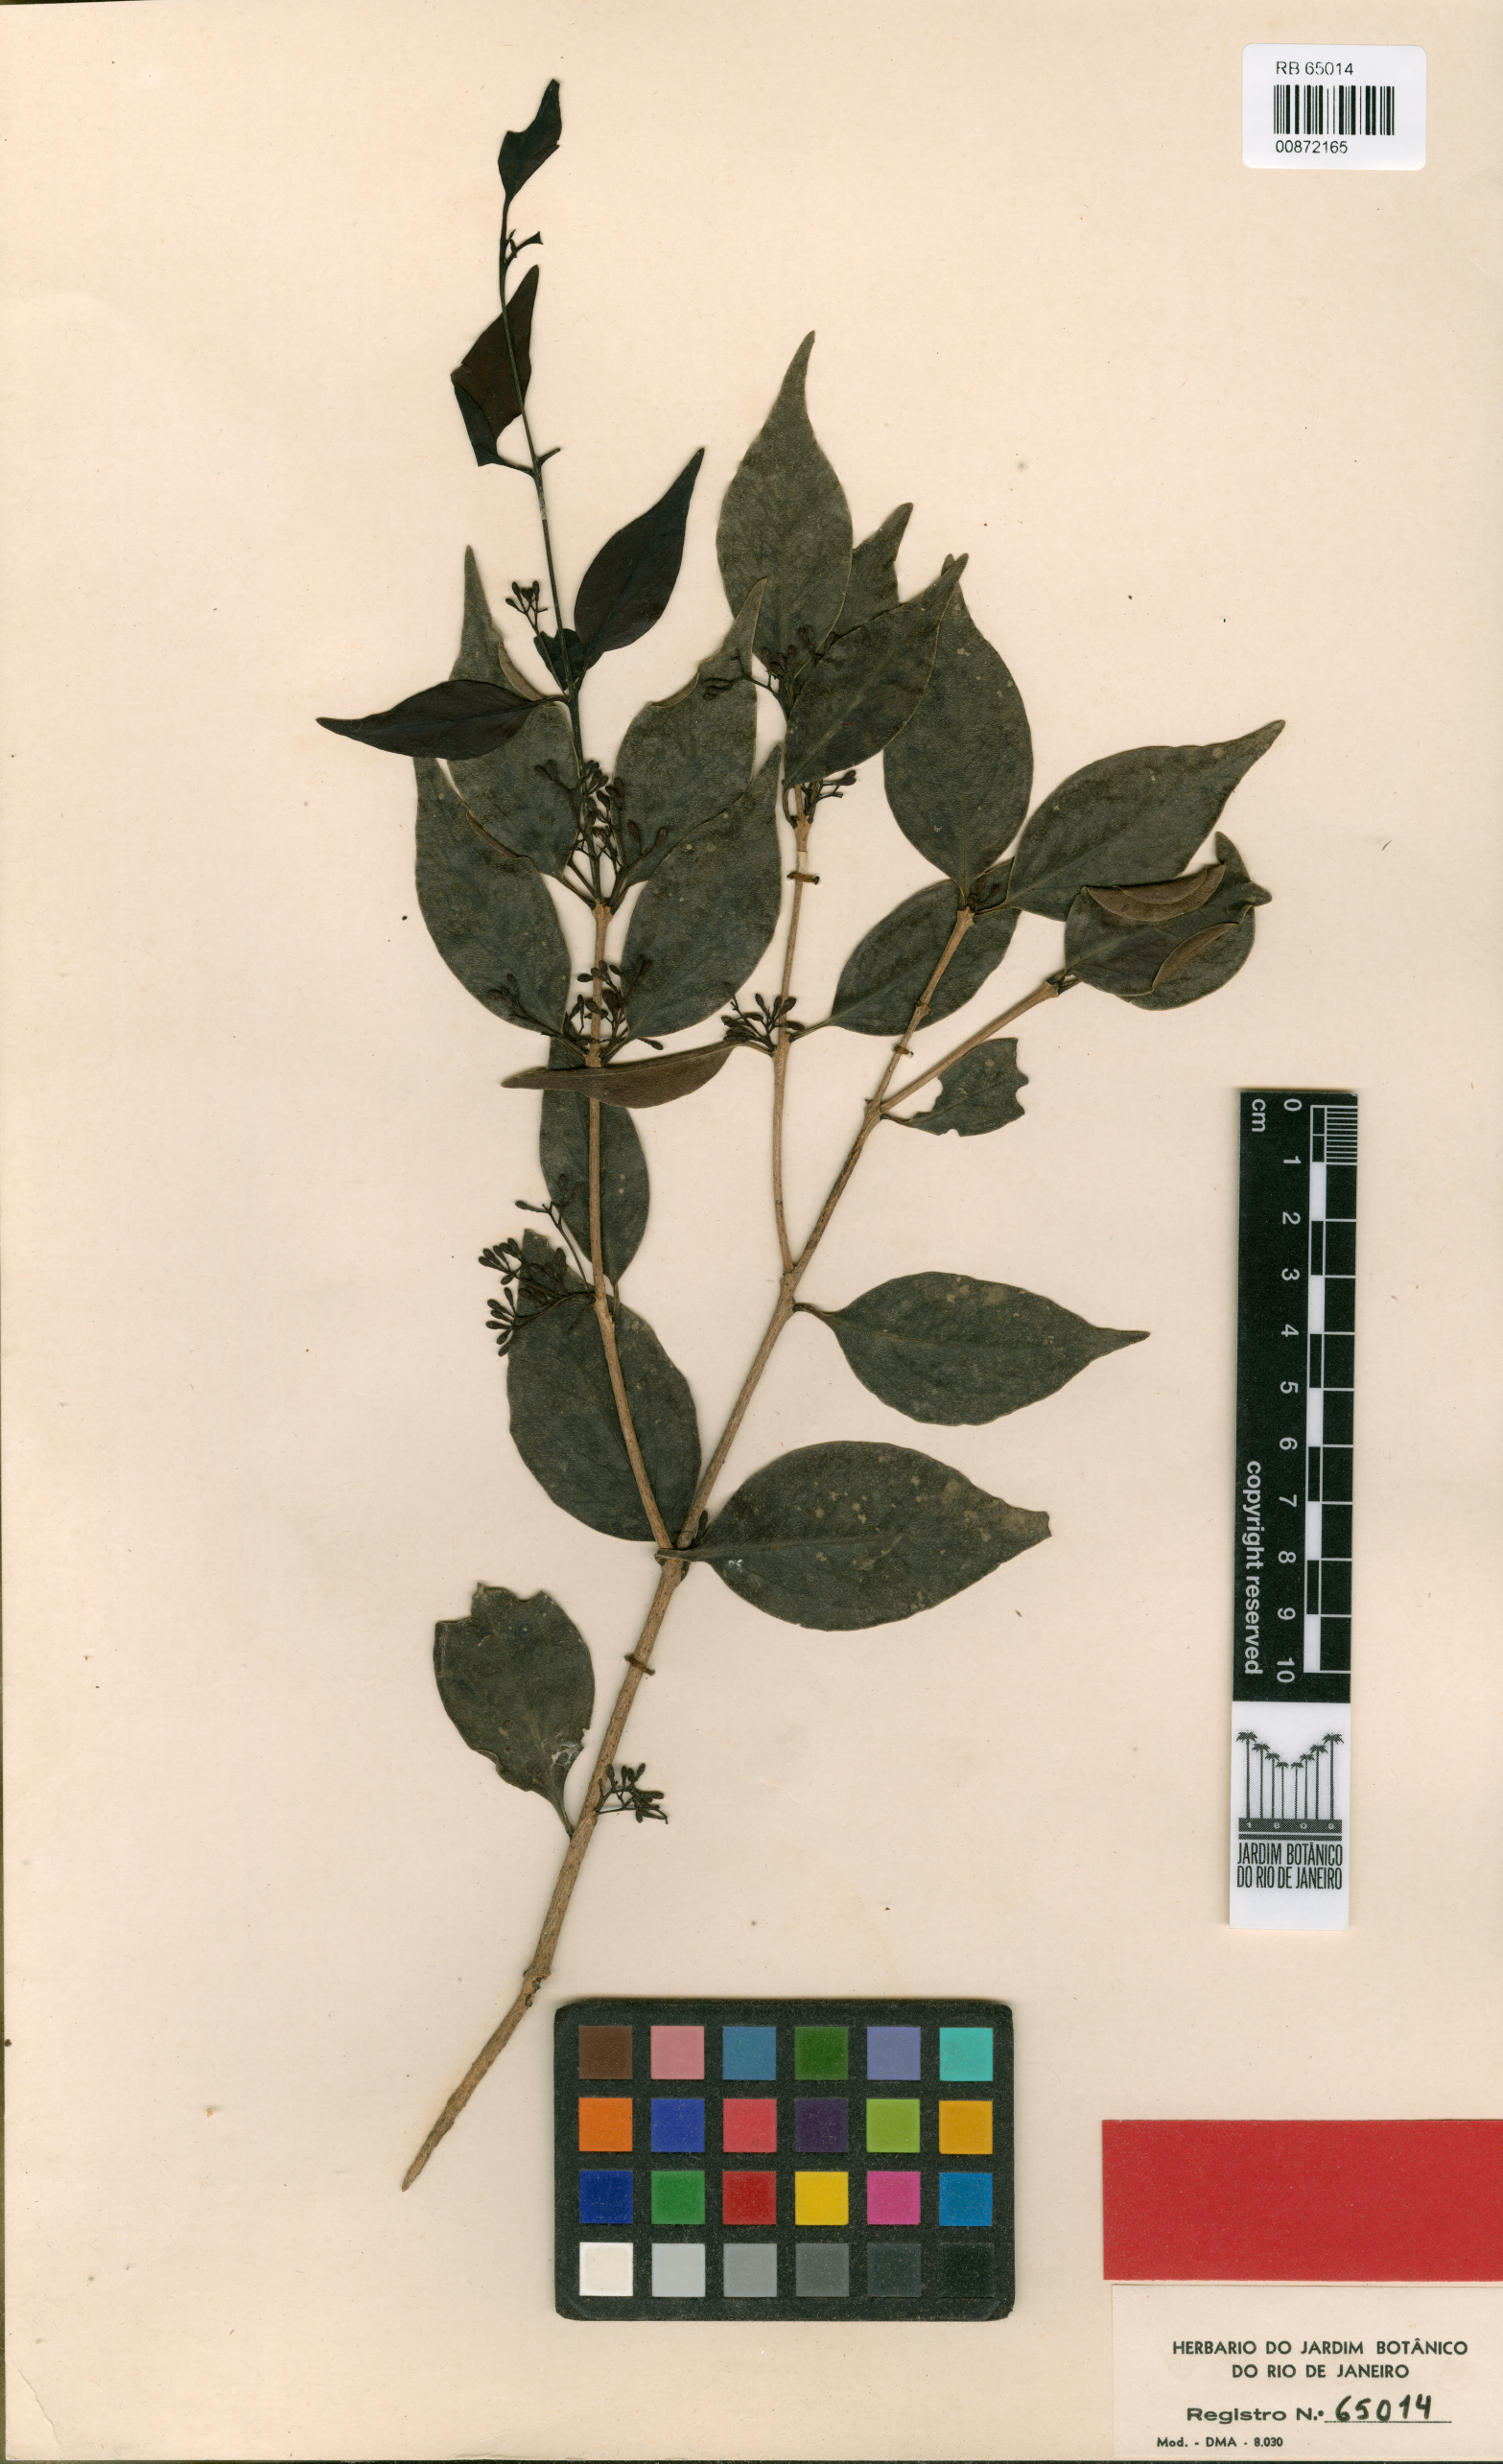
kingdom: Plantae
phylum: Tracheophyta
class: Magnoliopsida
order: Santalales
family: Loranthaceae
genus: Struthanthus
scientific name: Struthanthus volubilis
